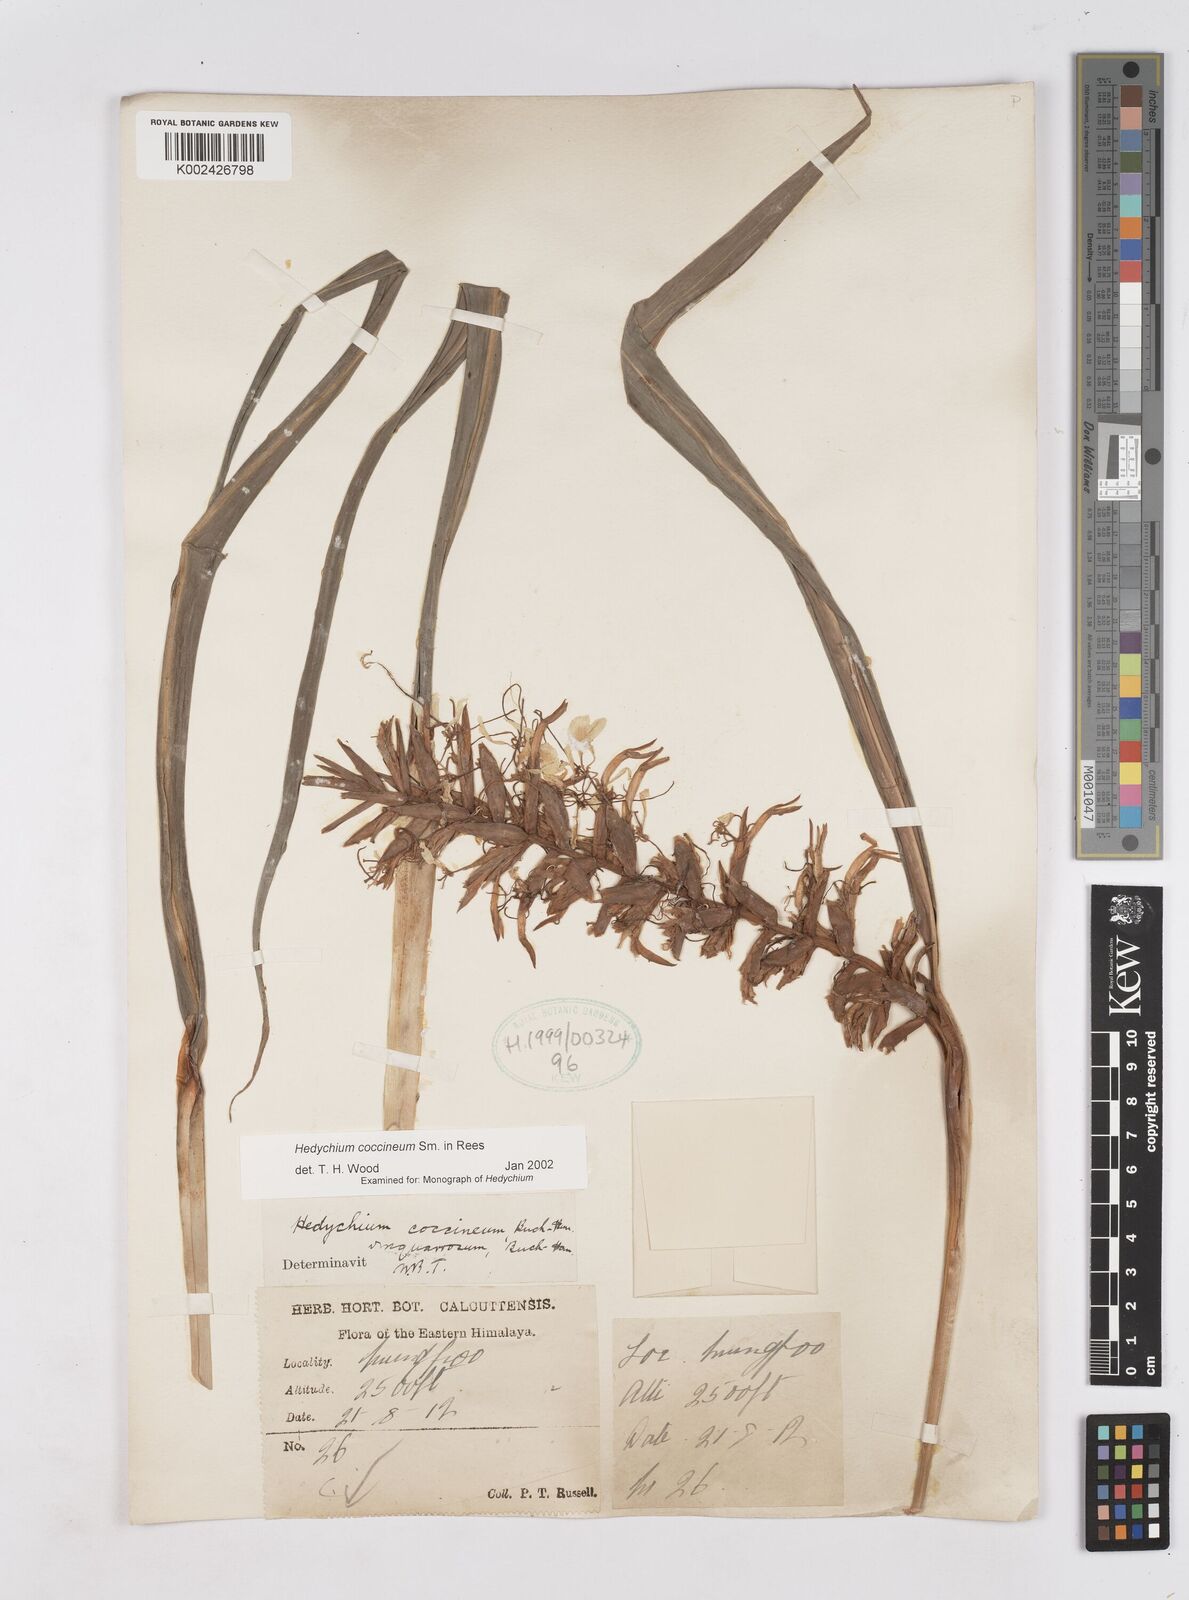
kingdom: Plantae
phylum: Tracheophyta
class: Liliopsida
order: Zingiberales
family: Zingiberaceae
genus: Hedychium
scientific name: Hedychium coccineum
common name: Red ginger-lily
